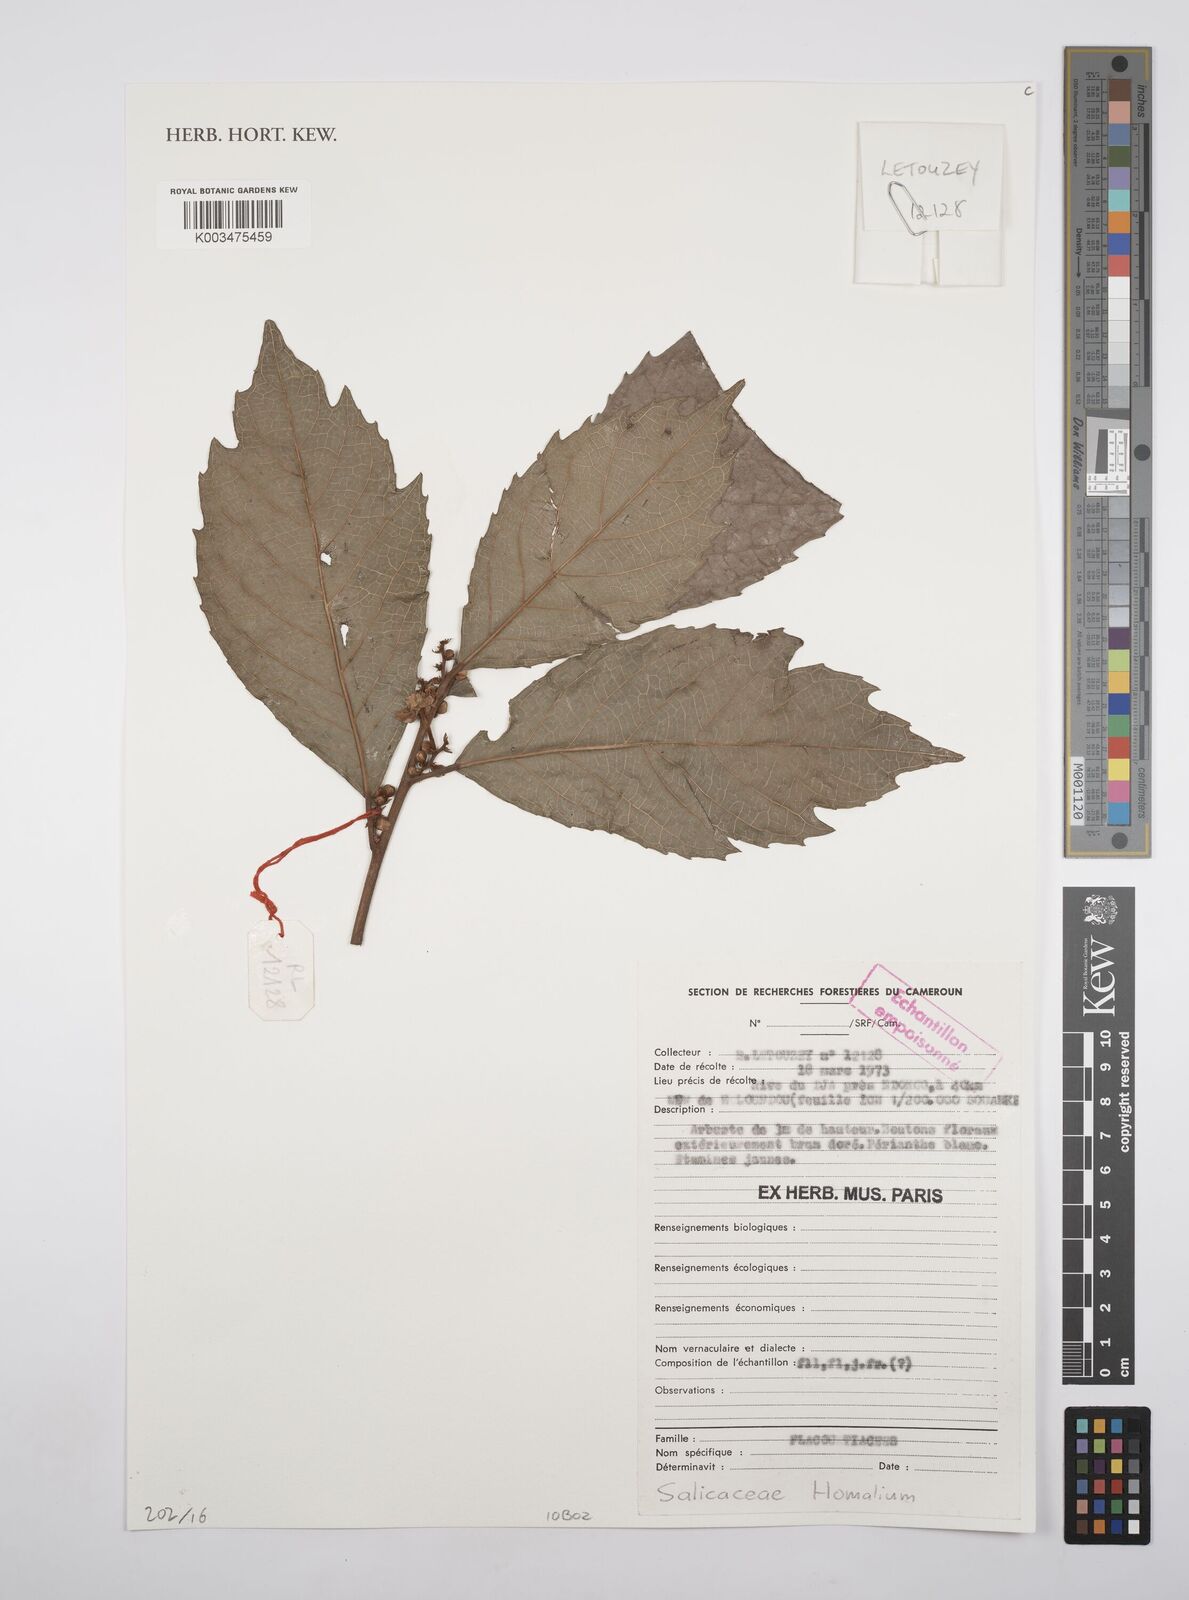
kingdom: Plantae
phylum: Tracheophyta
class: Magnoliopsida
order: Malpighiales
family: Salicaceae
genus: Homalium
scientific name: Homalium
